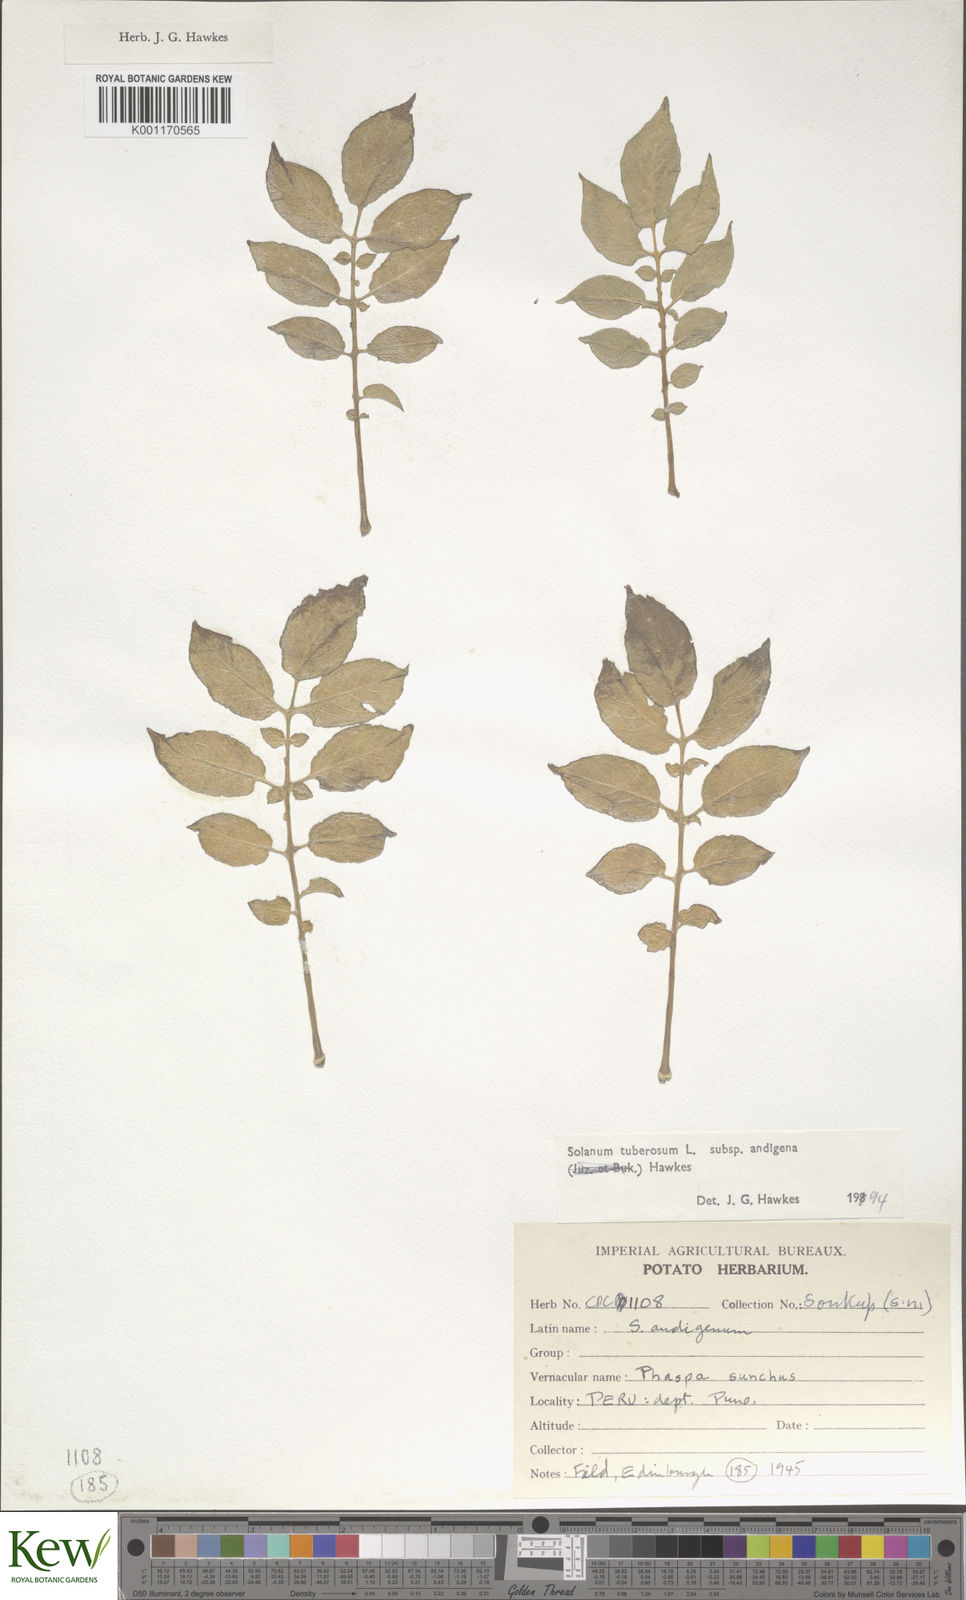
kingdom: Plantae
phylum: Tracheophyta
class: Magnoliopsida
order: Solanales
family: Solanaceae
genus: Solanum
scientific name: Solanum tuberosum
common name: Potato
